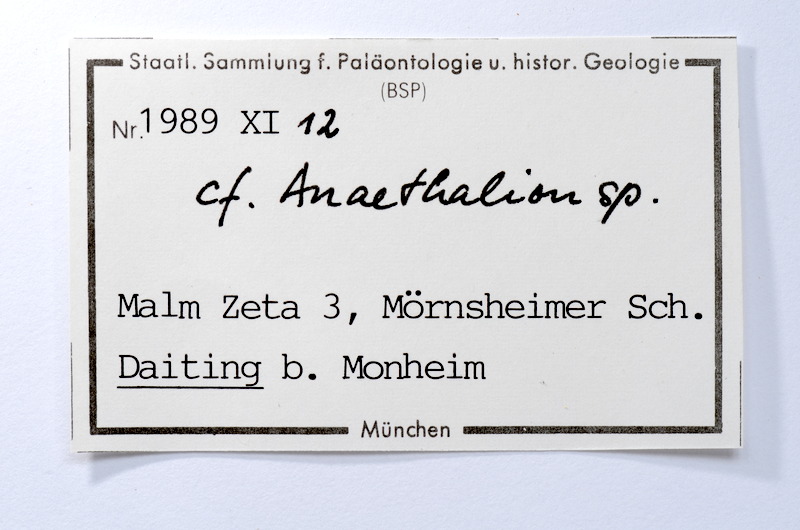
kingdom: Animalia
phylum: Chordata
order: Elopiformes
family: Anaethalionidae
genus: Anaethalion
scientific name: Anaethalion
